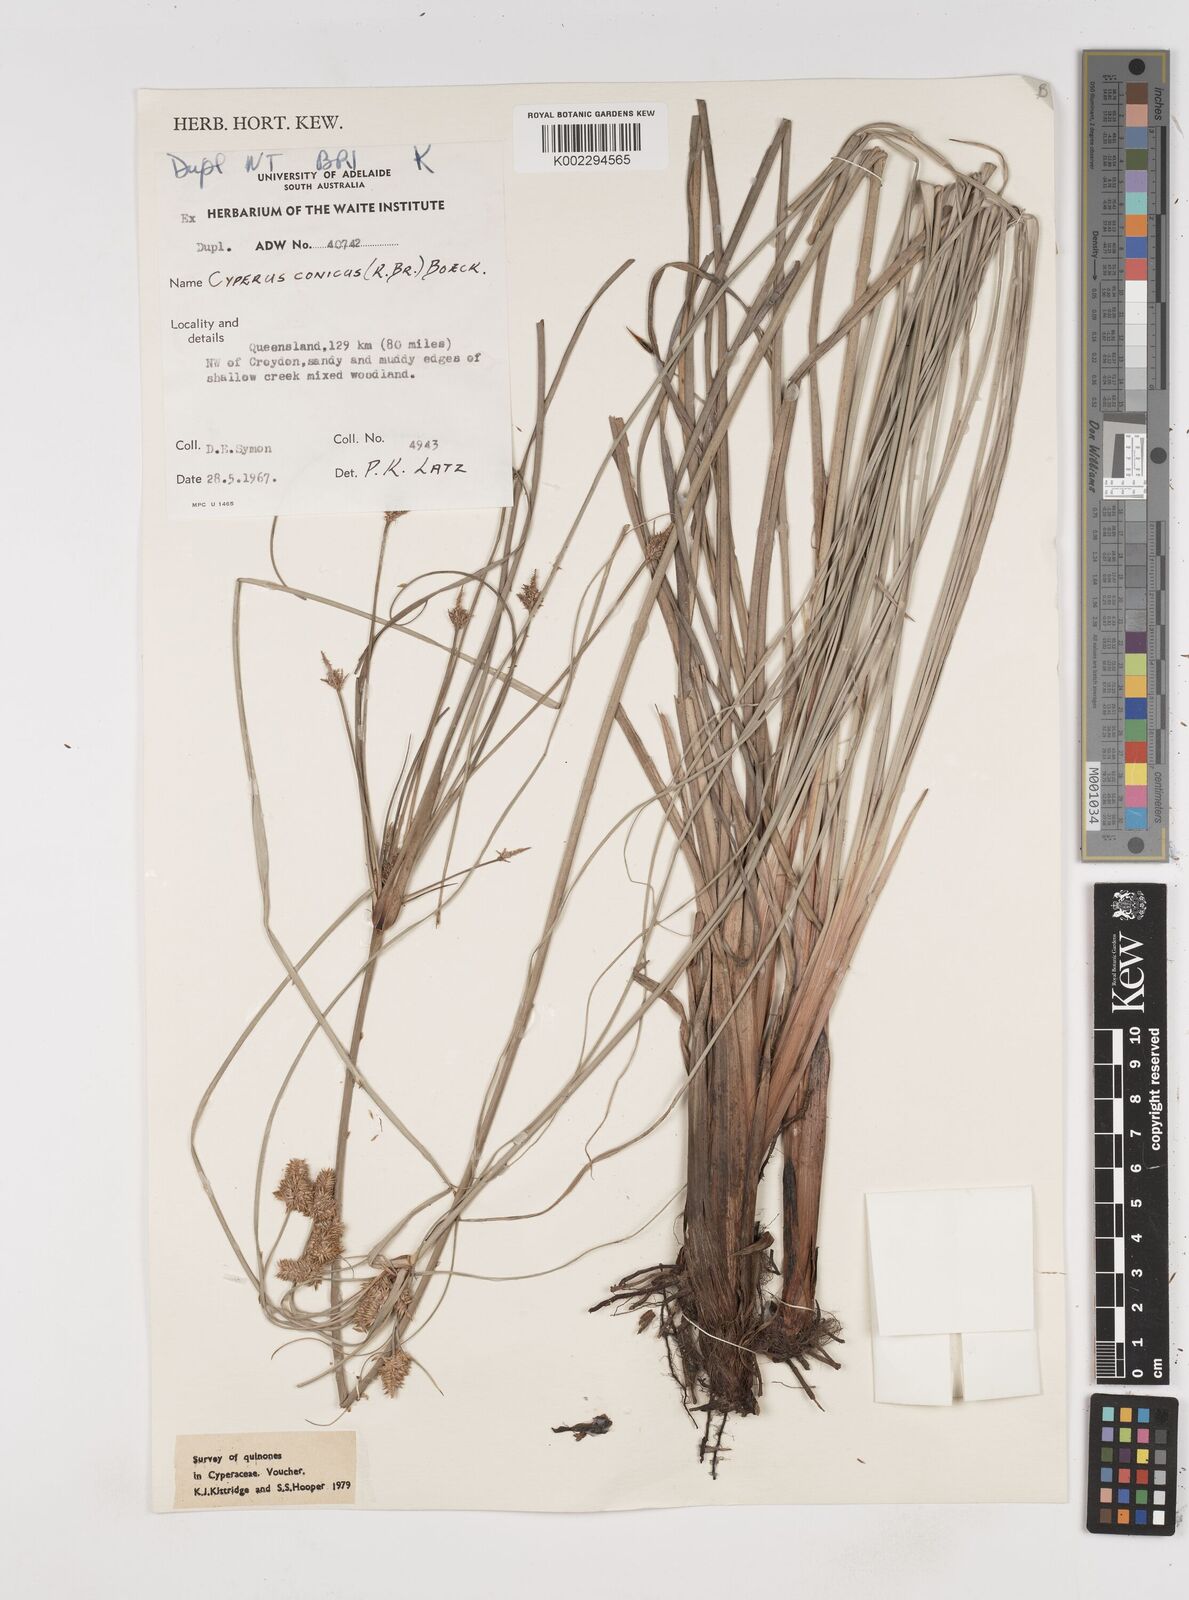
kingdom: Plantae
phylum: Tracheophyta
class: Liliopsida
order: Poales
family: Cyperaceae
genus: Cyperus
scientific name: Cyperus conicus
